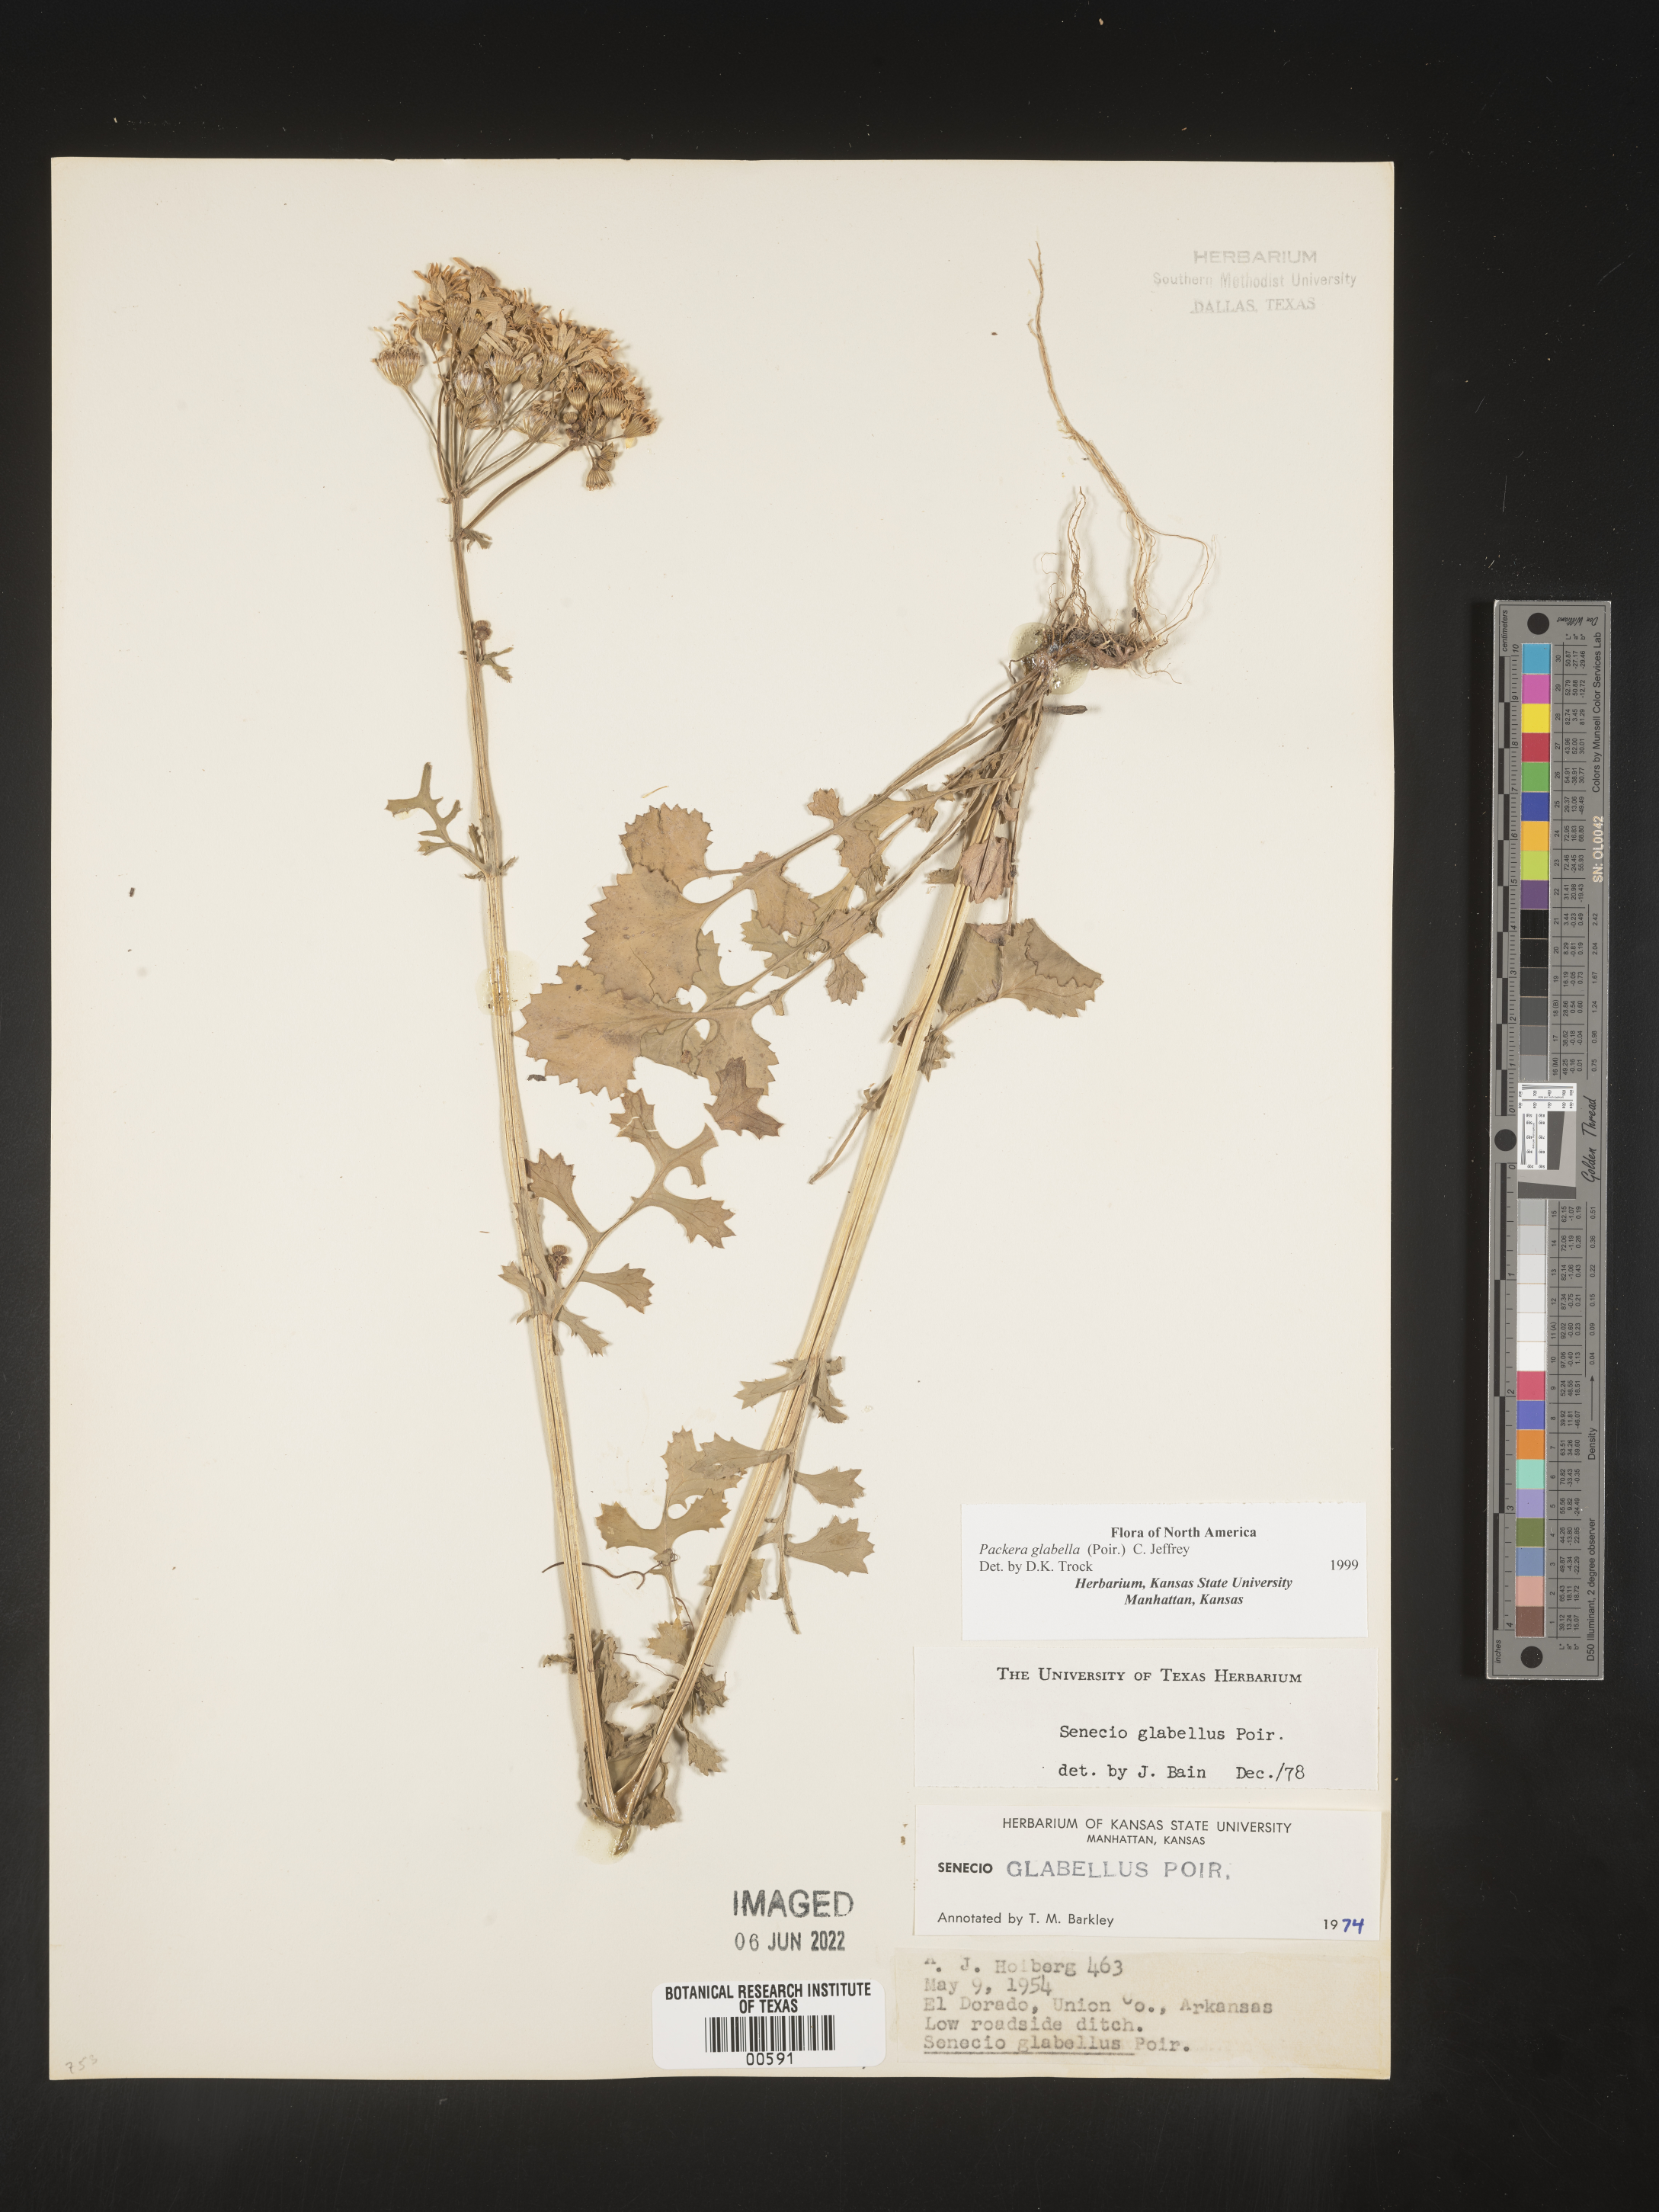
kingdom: Plantae
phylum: Tracheophyta
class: Magnoliopsida
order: Asterales
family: Asteraceae
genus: Packera
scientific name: Packera glabella
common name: Butterweed
